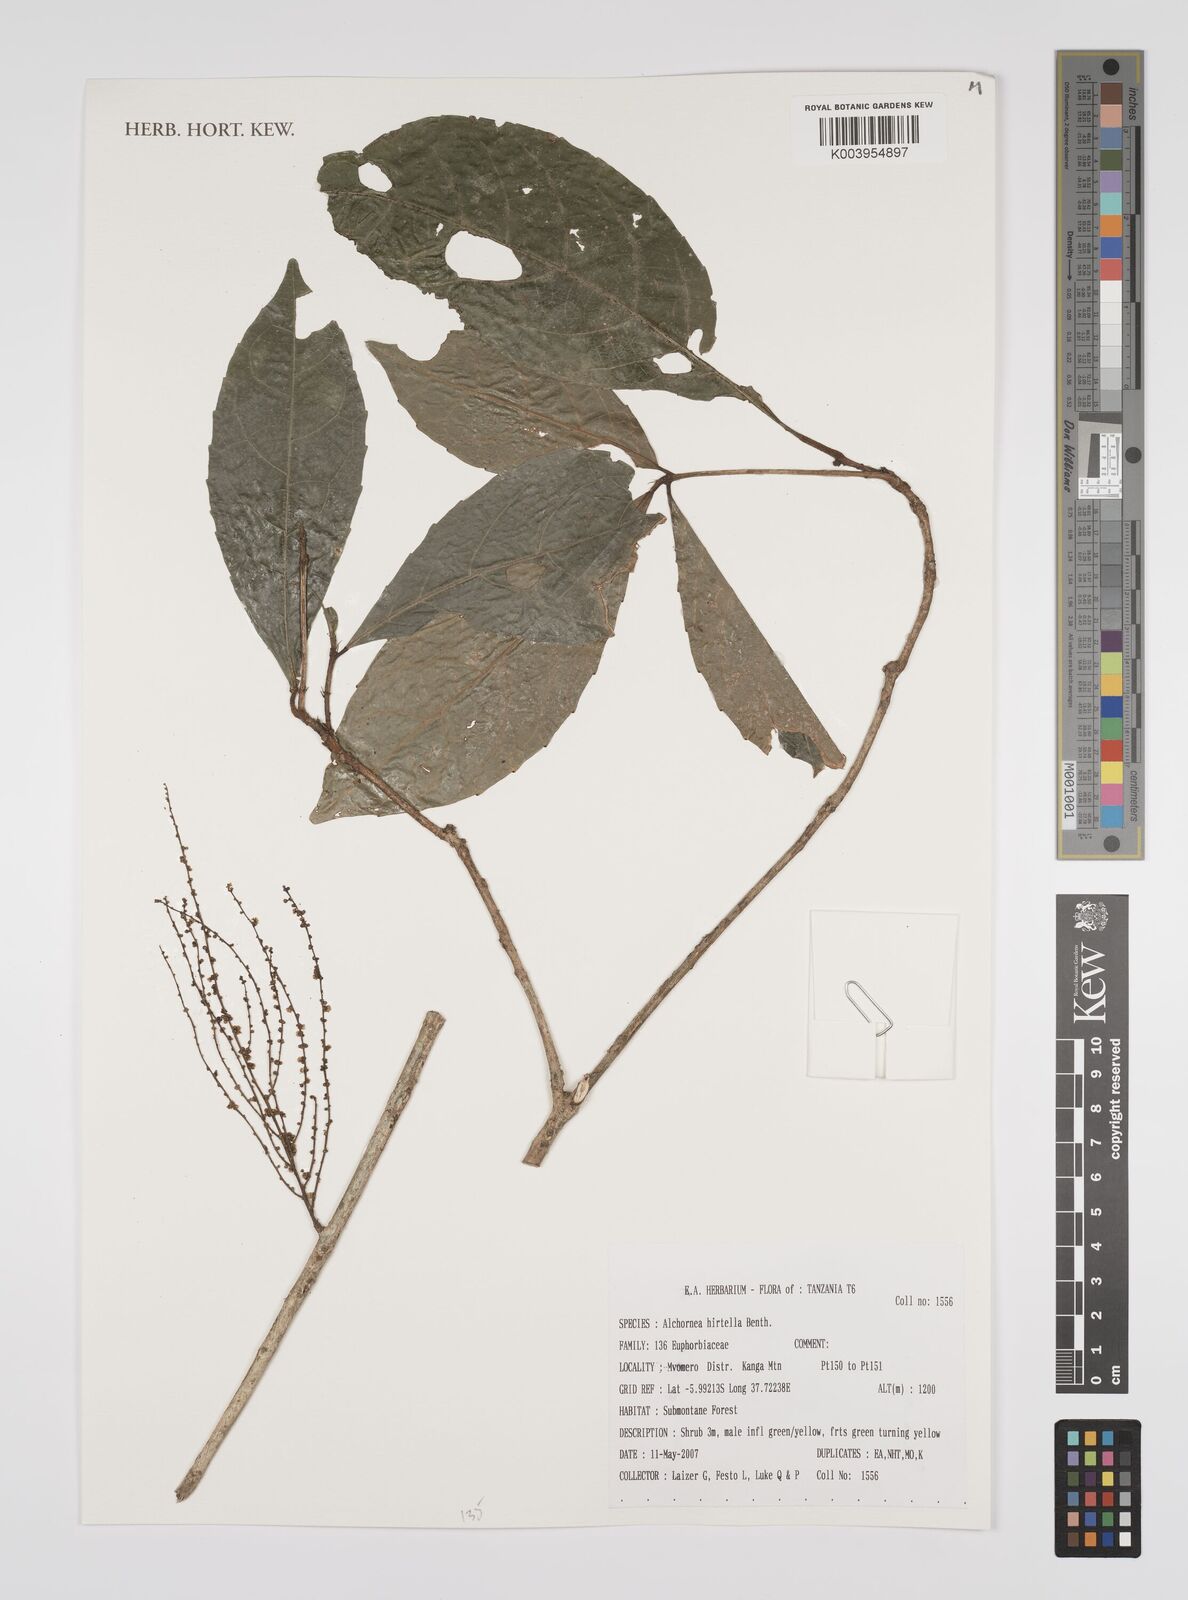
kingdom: Plantae
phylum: Tracheophyta
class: Magnoliopsida
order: Malpighiales
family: Euphorbiaceae
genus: Alchornea
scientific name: Alchornea hirtella
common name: Forest bead-string
